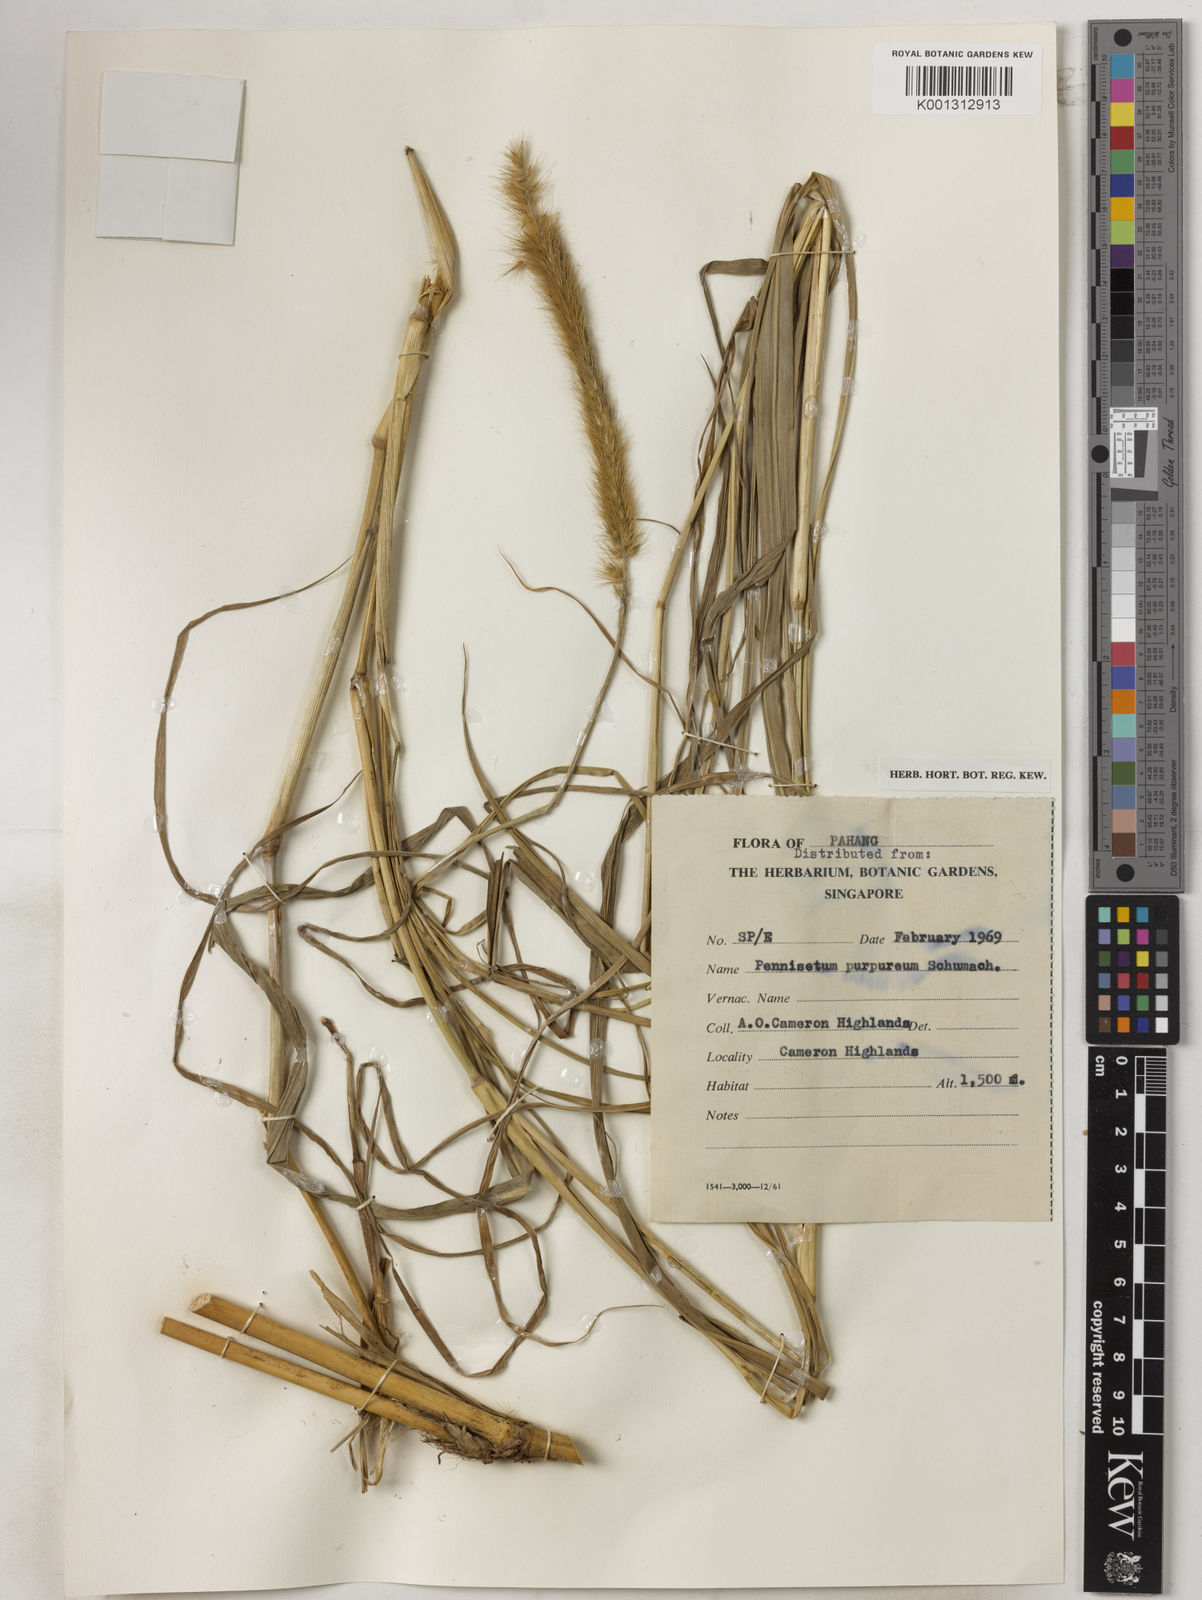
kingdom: Plantae
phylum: Tracheophyta
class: Liliopsida
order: Poales
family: Poaceae
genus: Cenchrus
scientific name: Cenchrus purpureus
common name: Elephant grass
